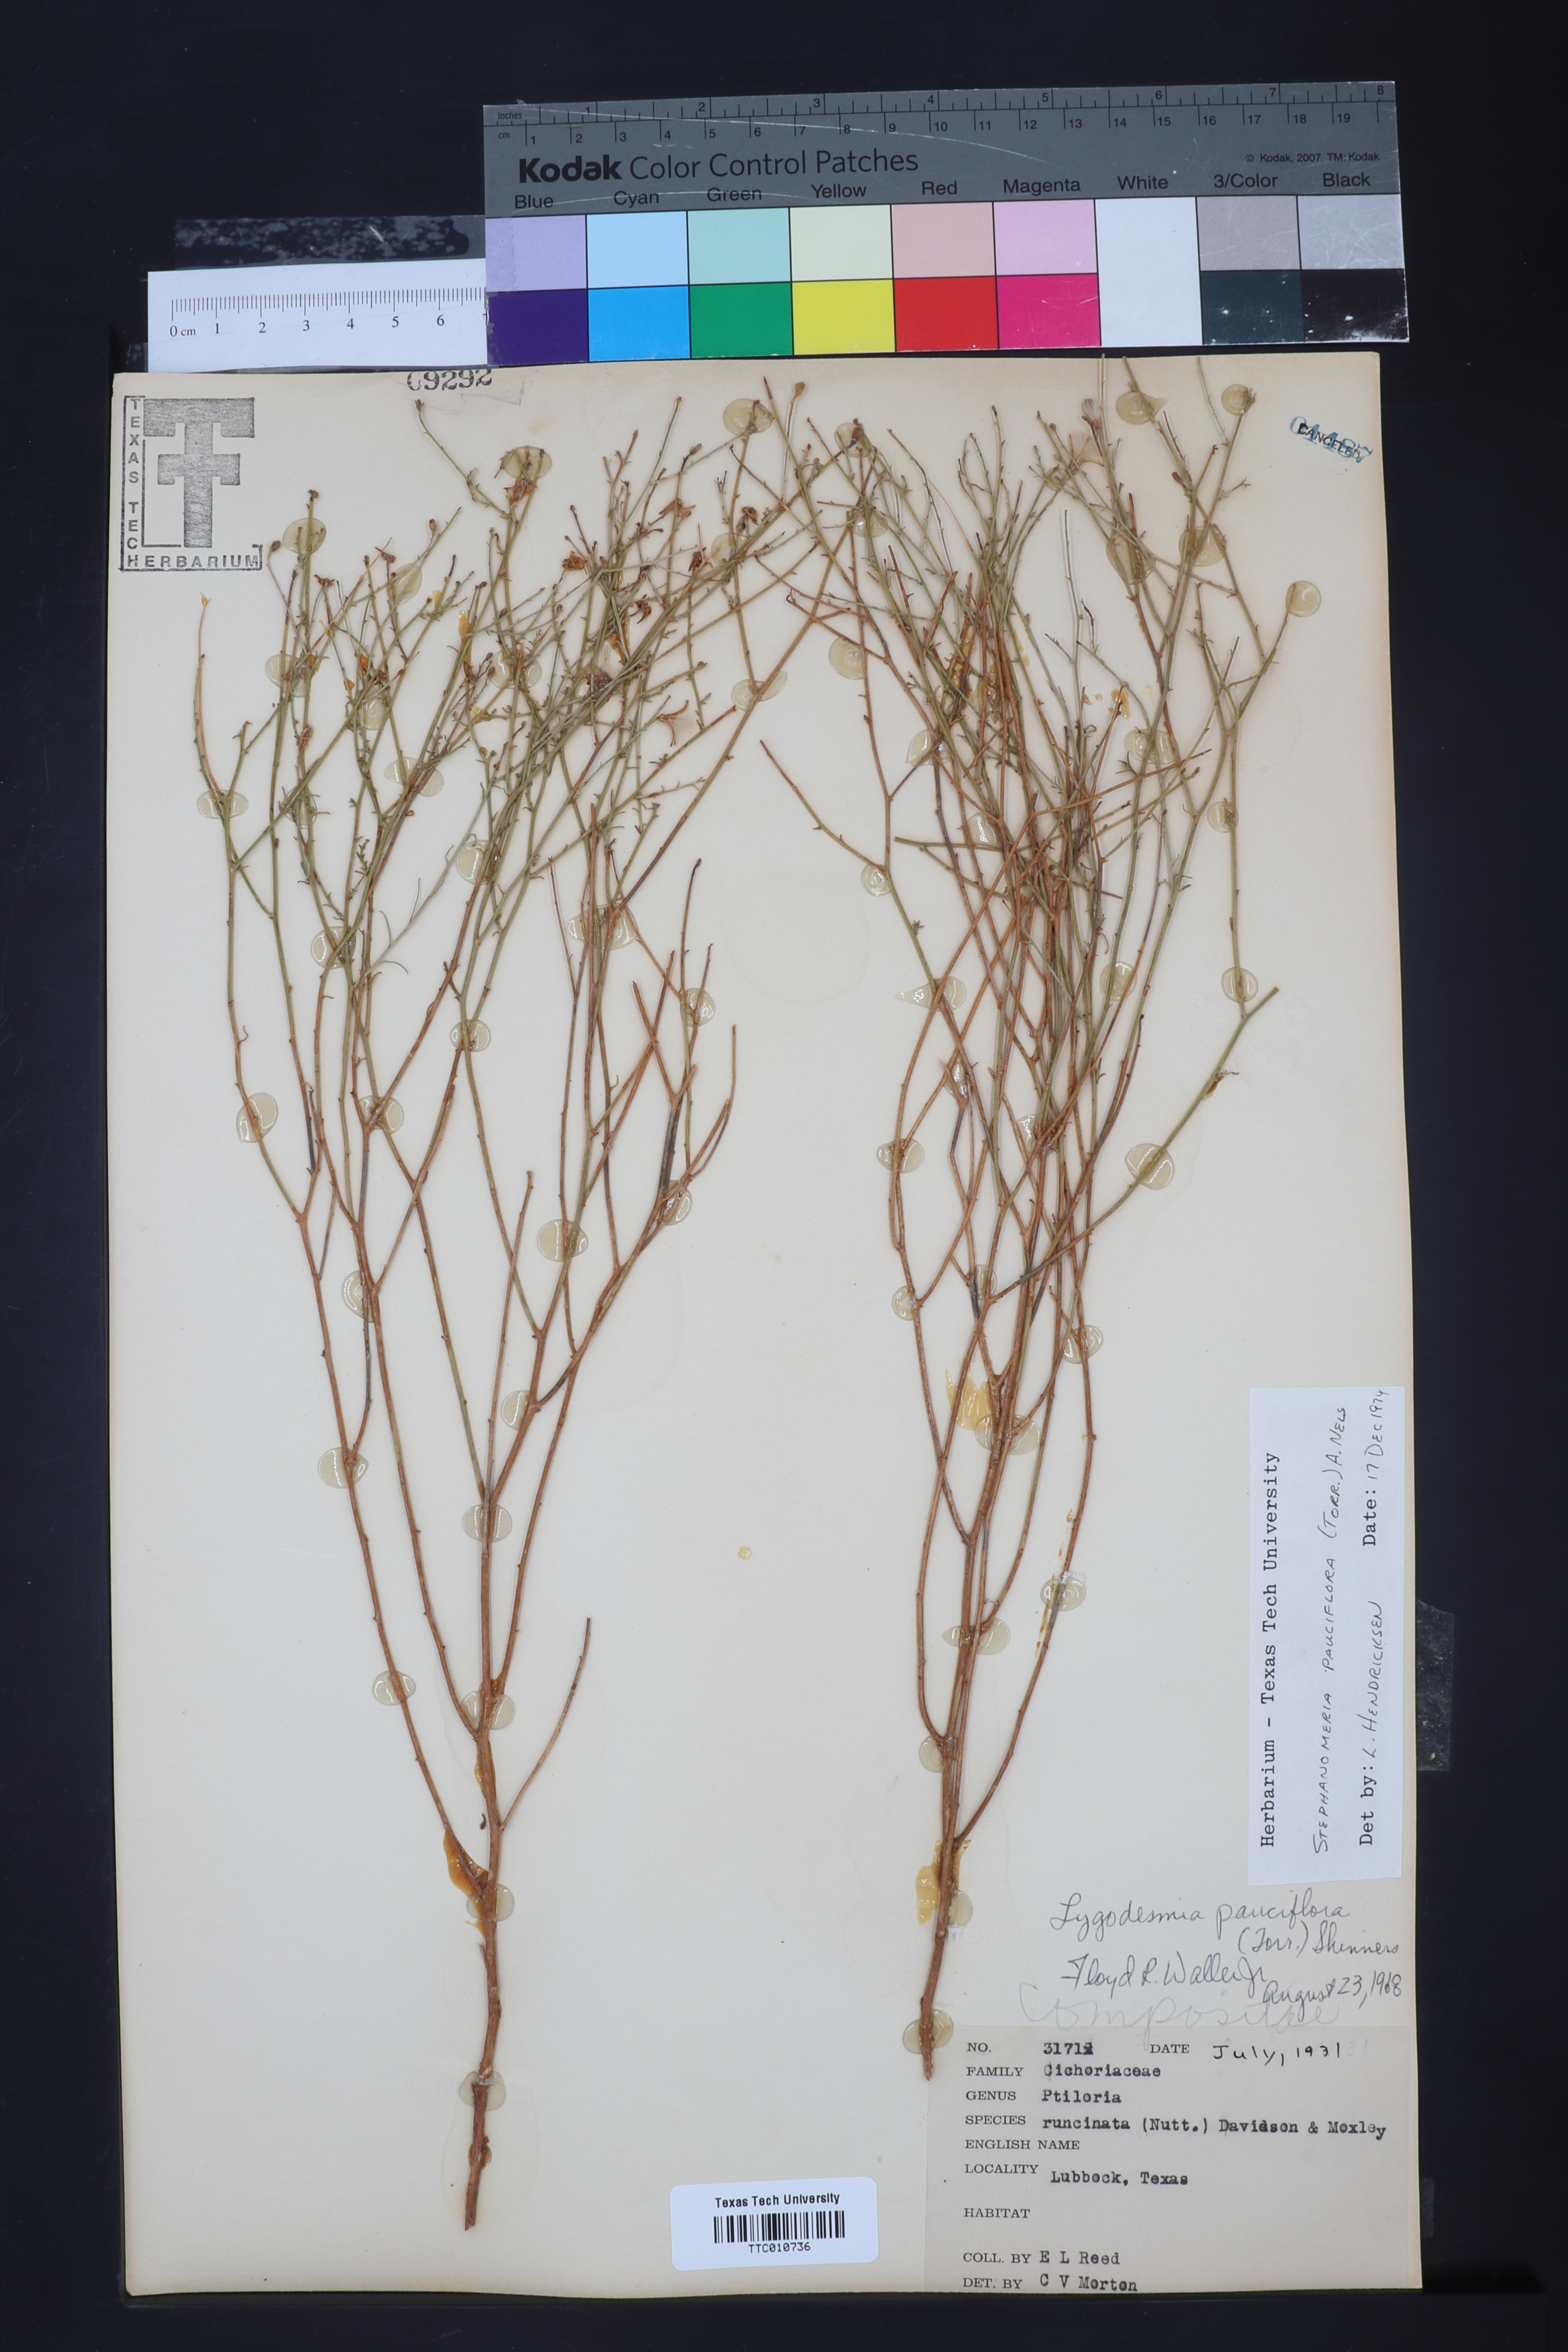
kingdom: Plantae
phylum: Tracheophyta
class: Magnoliopsida
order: Asterales
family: Asteraceae
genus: Stephanomeria
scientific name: Stephanomeria pauciflora
